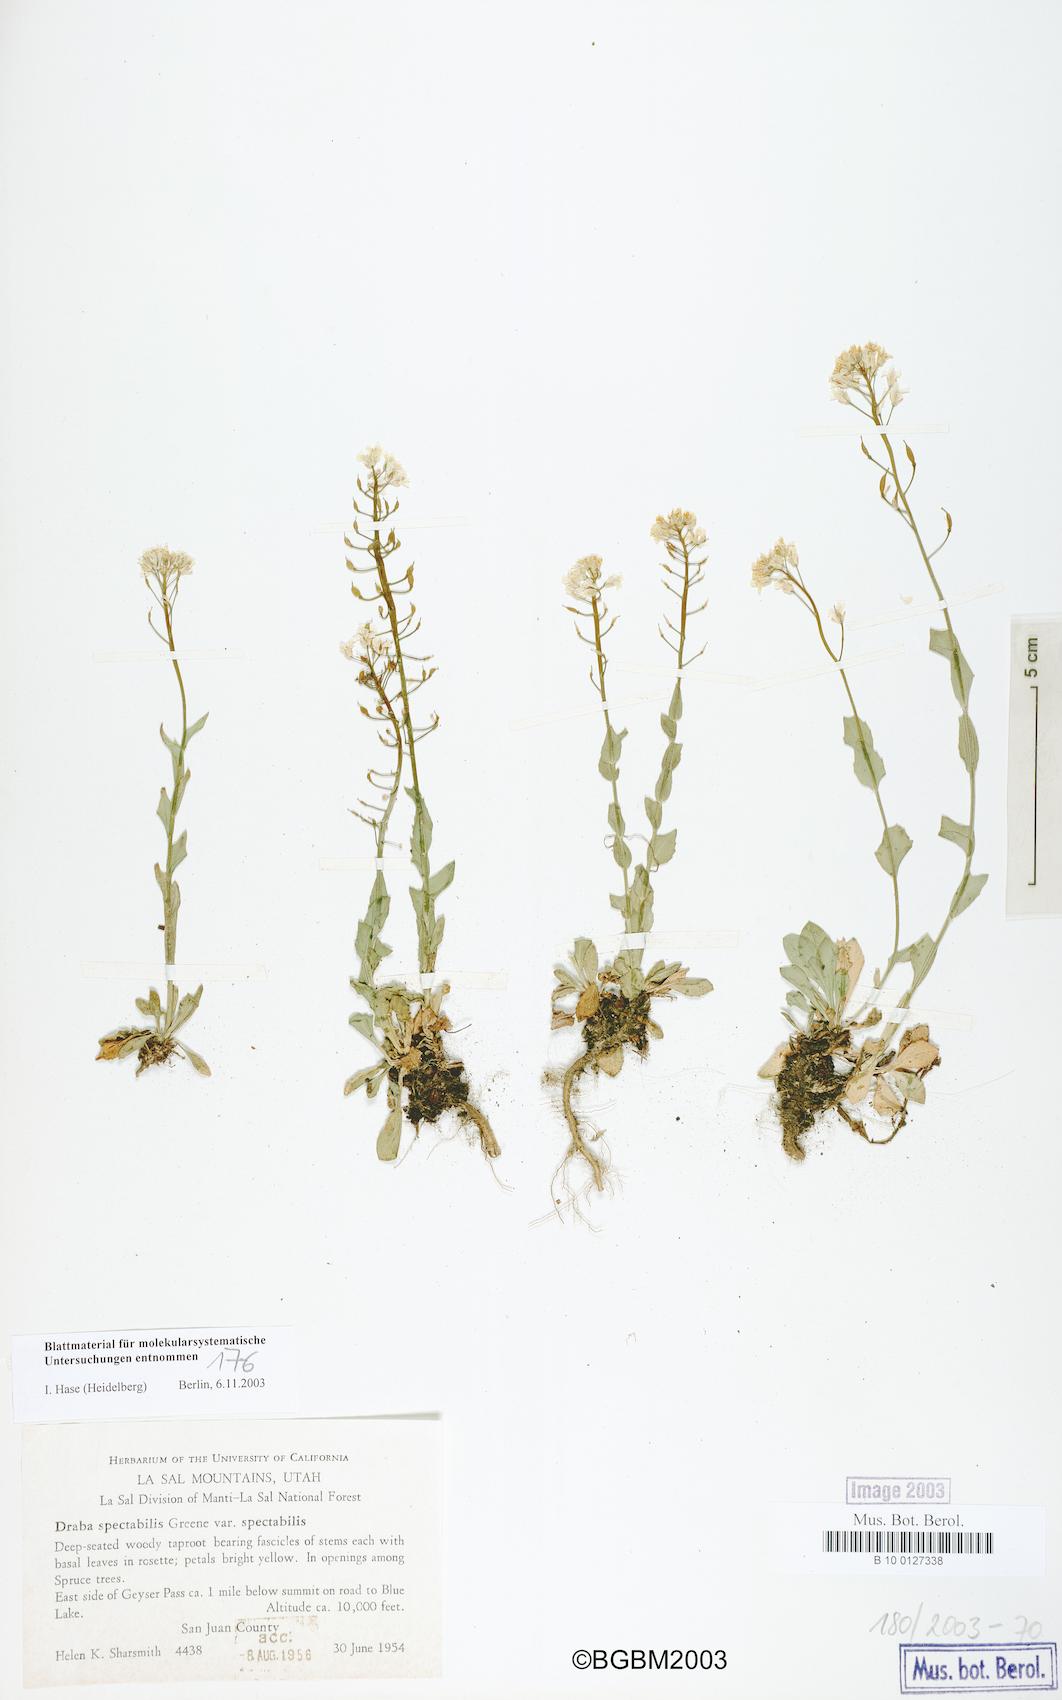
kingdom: Plantae
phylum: Tracheophyta
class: Magnoliopsida
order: Brassicales
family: Brassicaceae
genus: Draba
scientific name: Draba spectabilis
